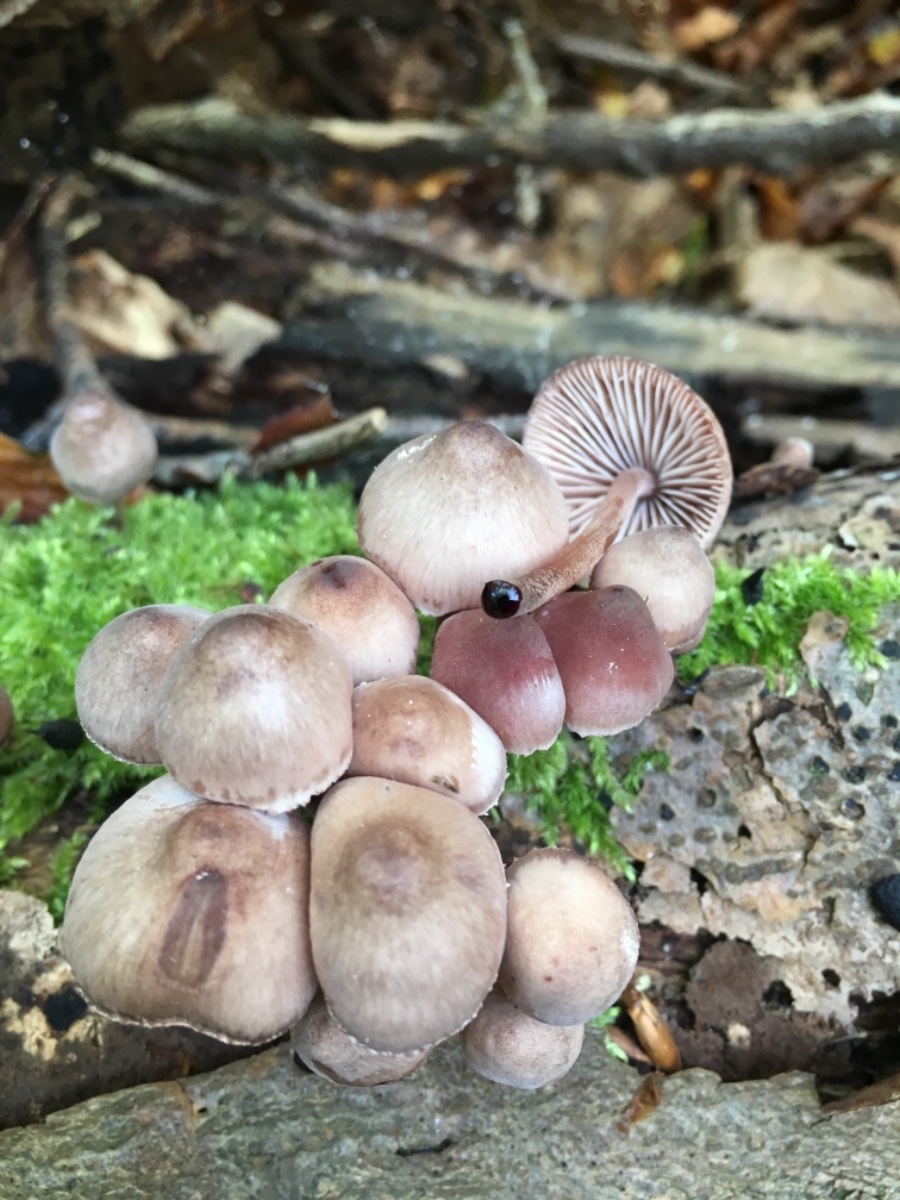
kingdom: Fungi
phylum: Basidiomycota
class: Agaricomycetes
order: Agaricales
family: Mycenaceae
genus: Mycena
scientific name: Mycena haematopus
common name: blødende huesvamp
